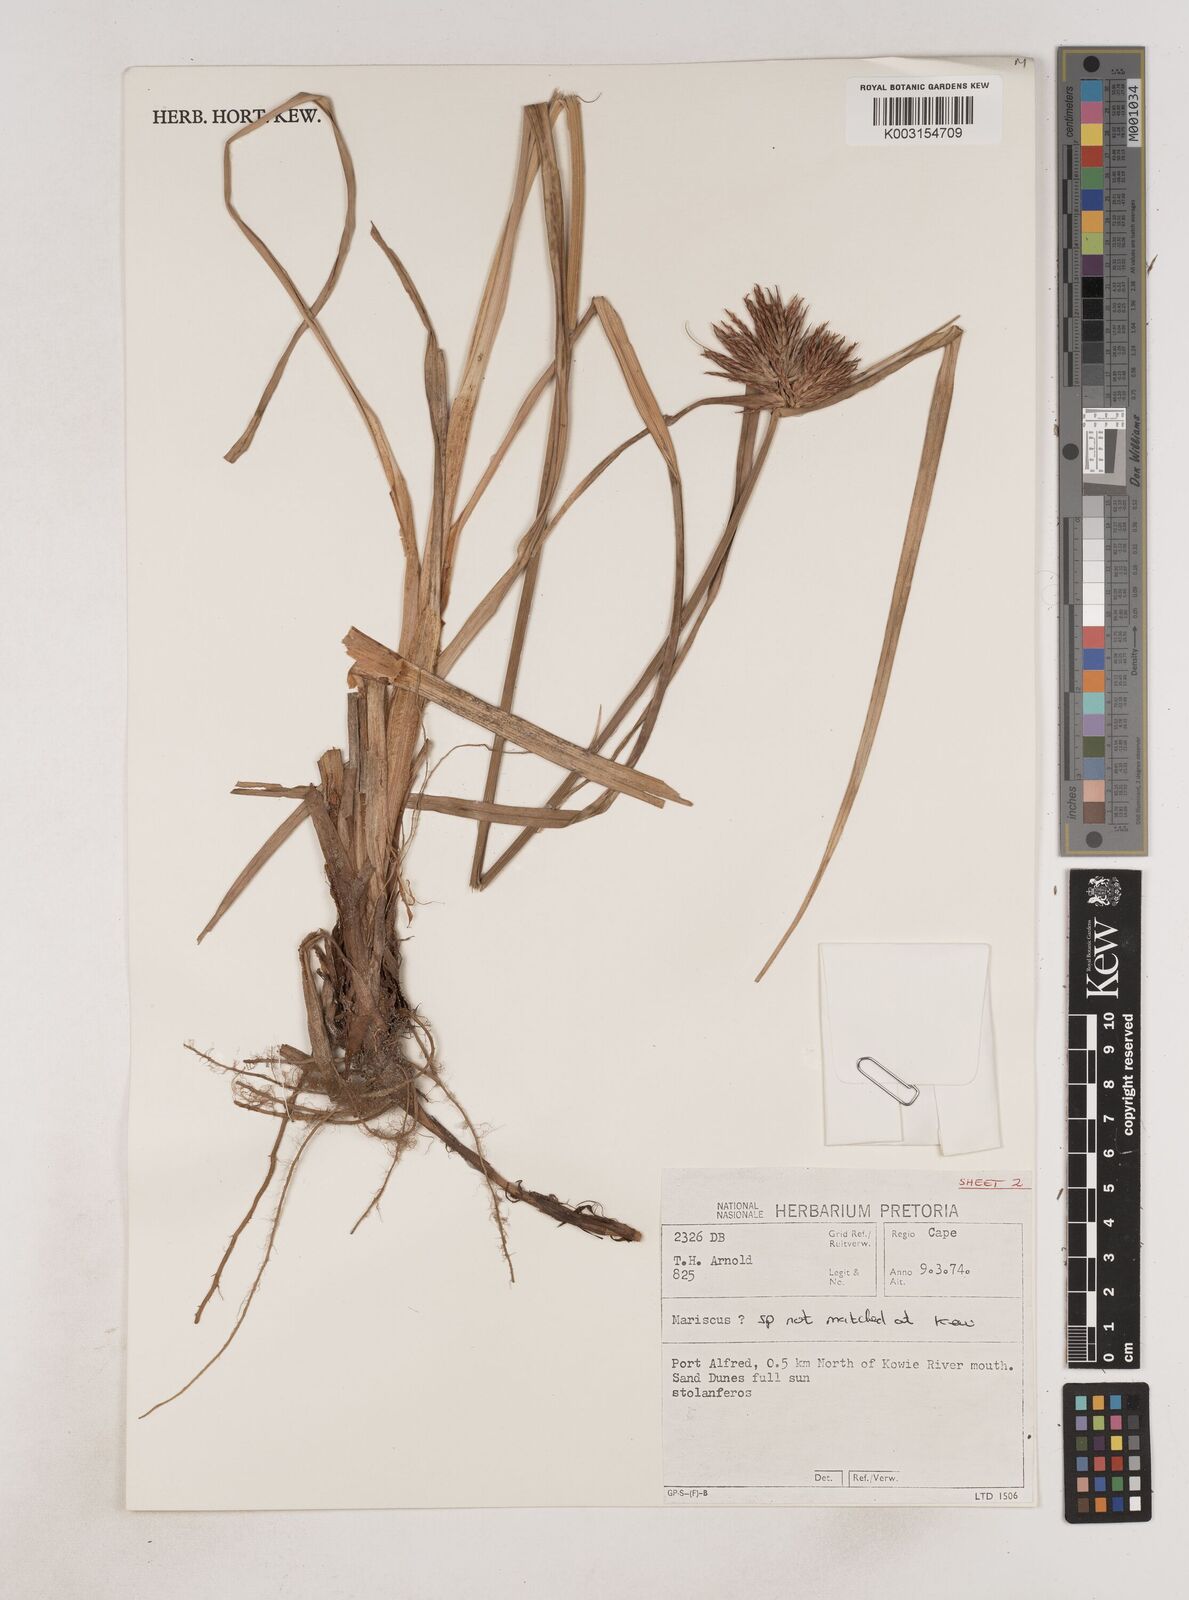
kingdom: Plantae
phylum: Tracheophyta
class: Liliopsida
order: Poales
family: Cyperaceae
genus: Cyperus
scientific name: Cyperus
